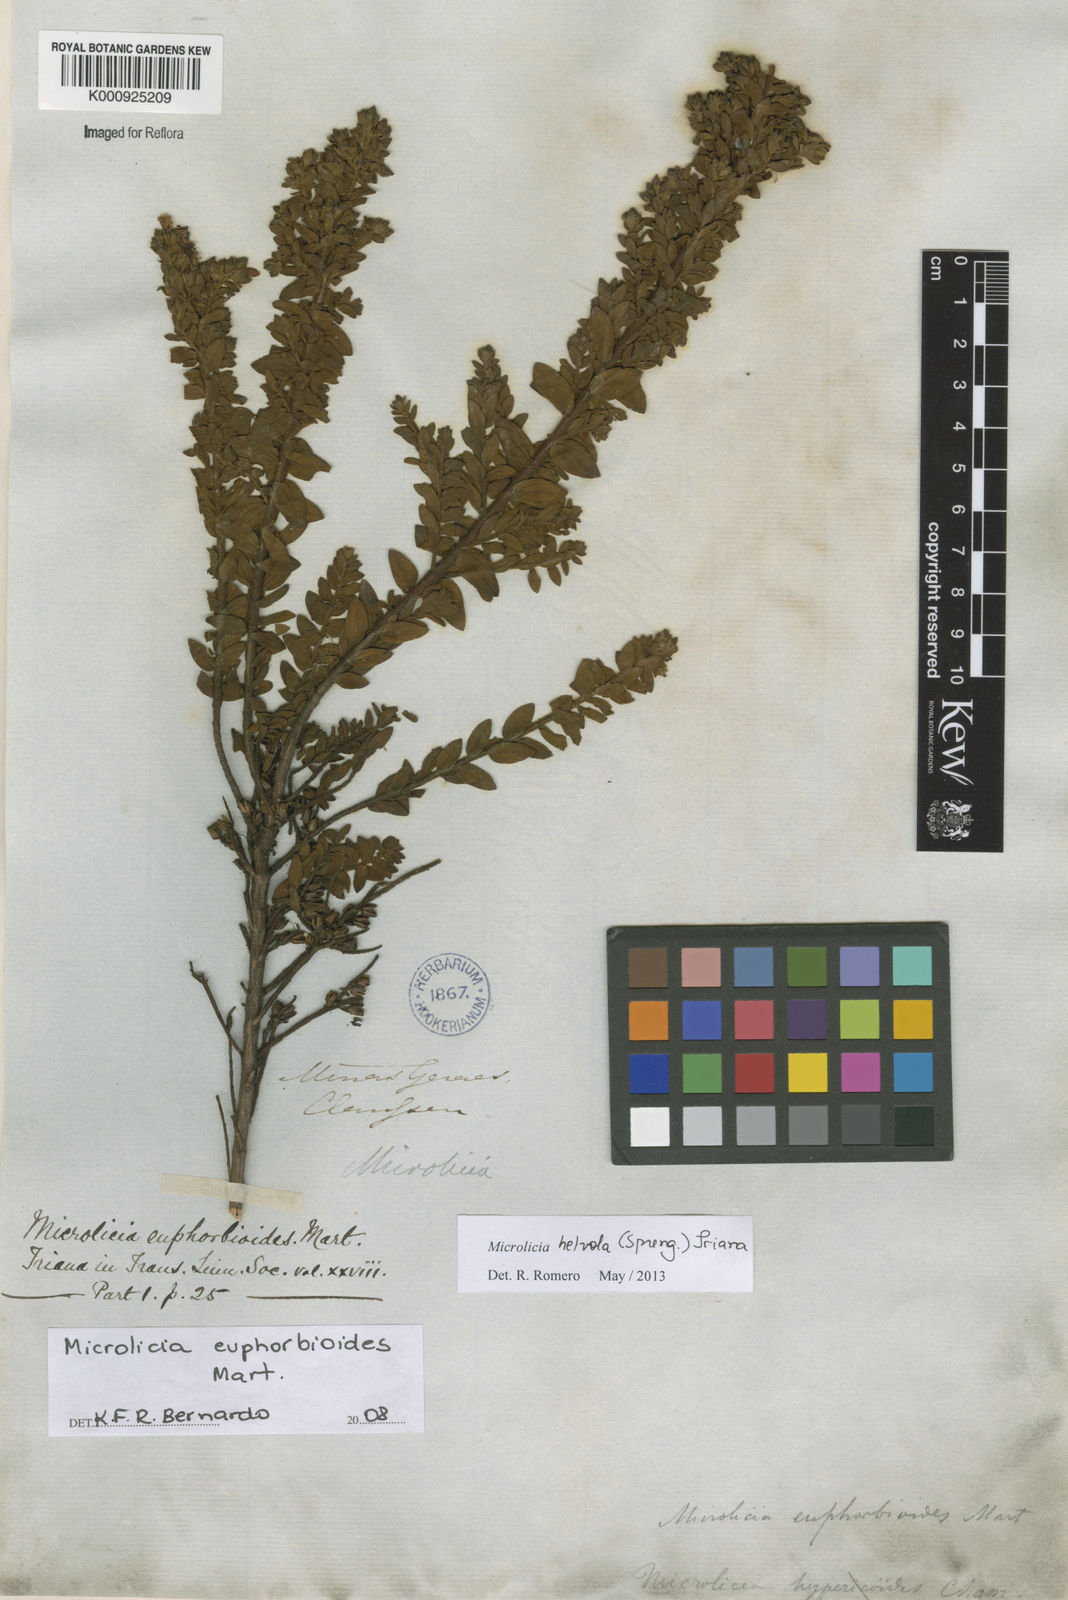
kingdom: Plantae
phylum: Tracheophyta
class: Magnoliopsida
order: Myrtales
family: Melastomataceae
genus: Microlicia
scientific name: Microlicia helvola
